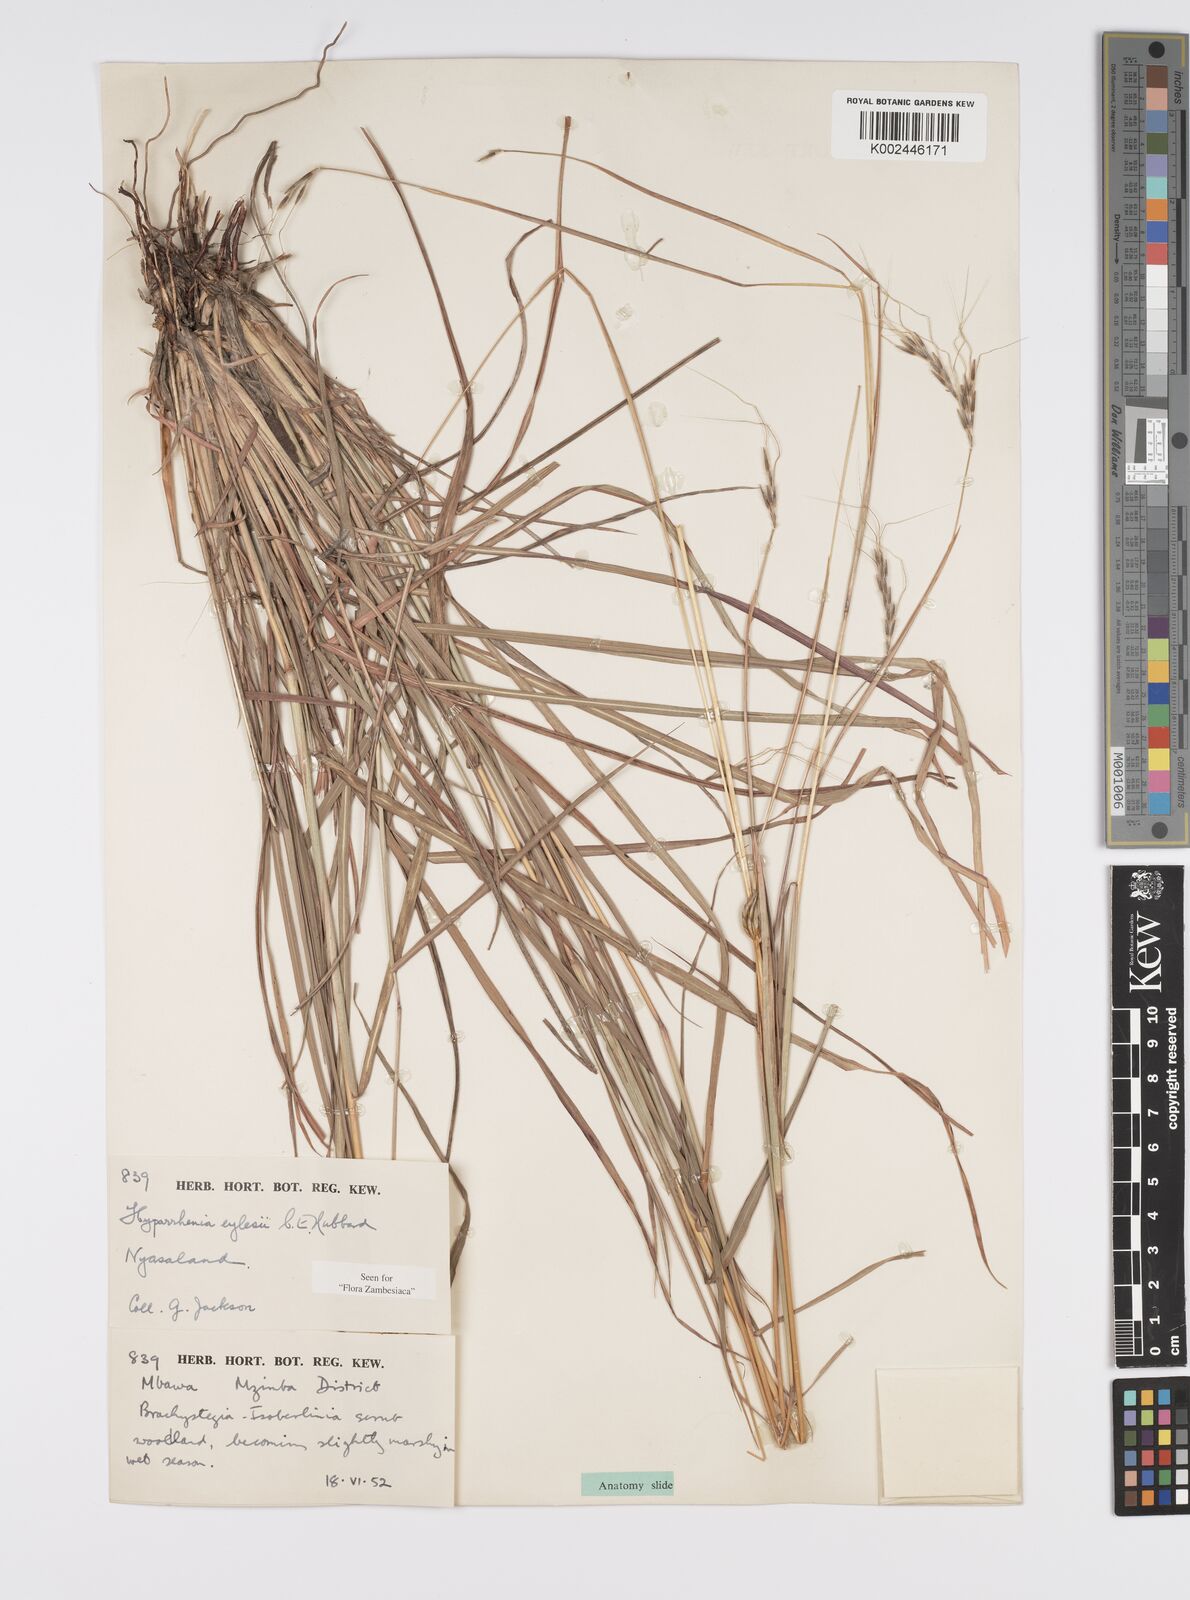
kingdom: Plantae
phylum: Tracheophyta
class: Liliopsida
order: Poales
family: Poaceae
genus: Elymandra
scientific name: Elymandra grallata
